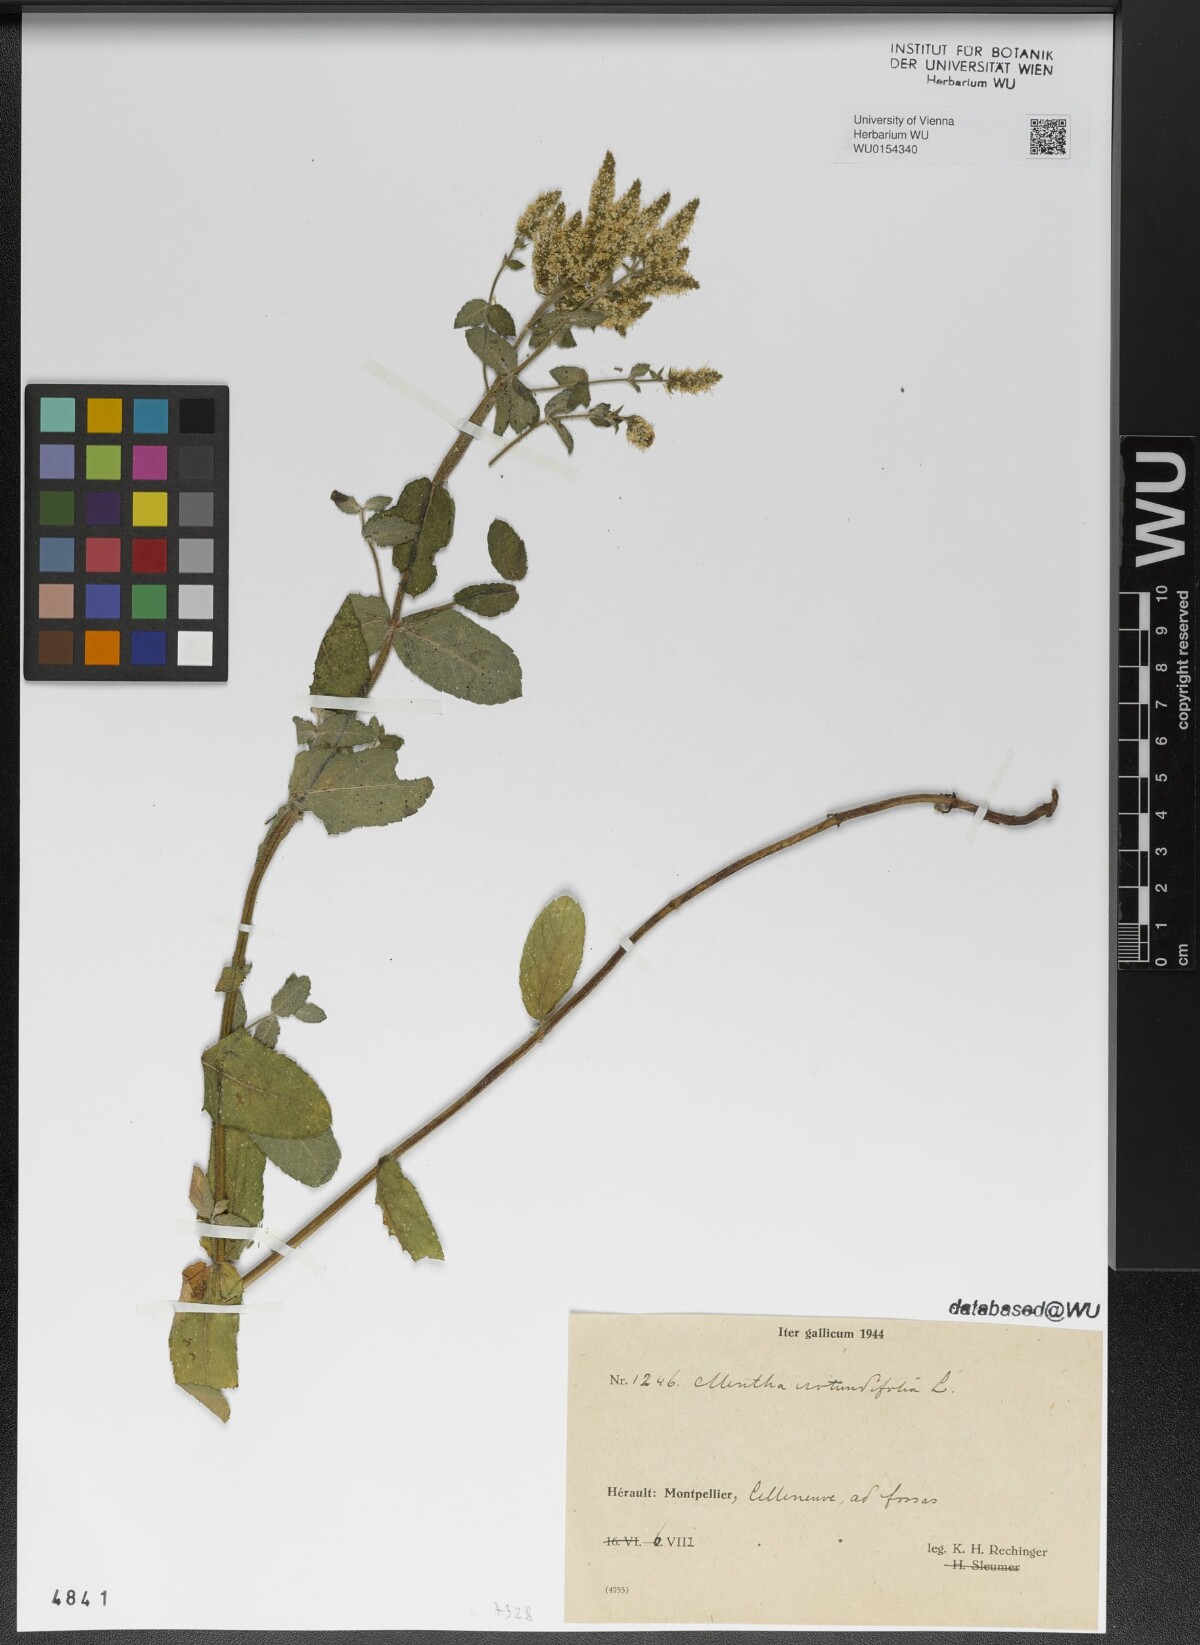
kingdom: Plantae
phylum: Tracheophyta
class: Magnoliopsida
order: Lamiales
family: Lamiaceae
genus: Mentha
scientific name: Mentha rotundifolia
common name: Bigleaf mint
